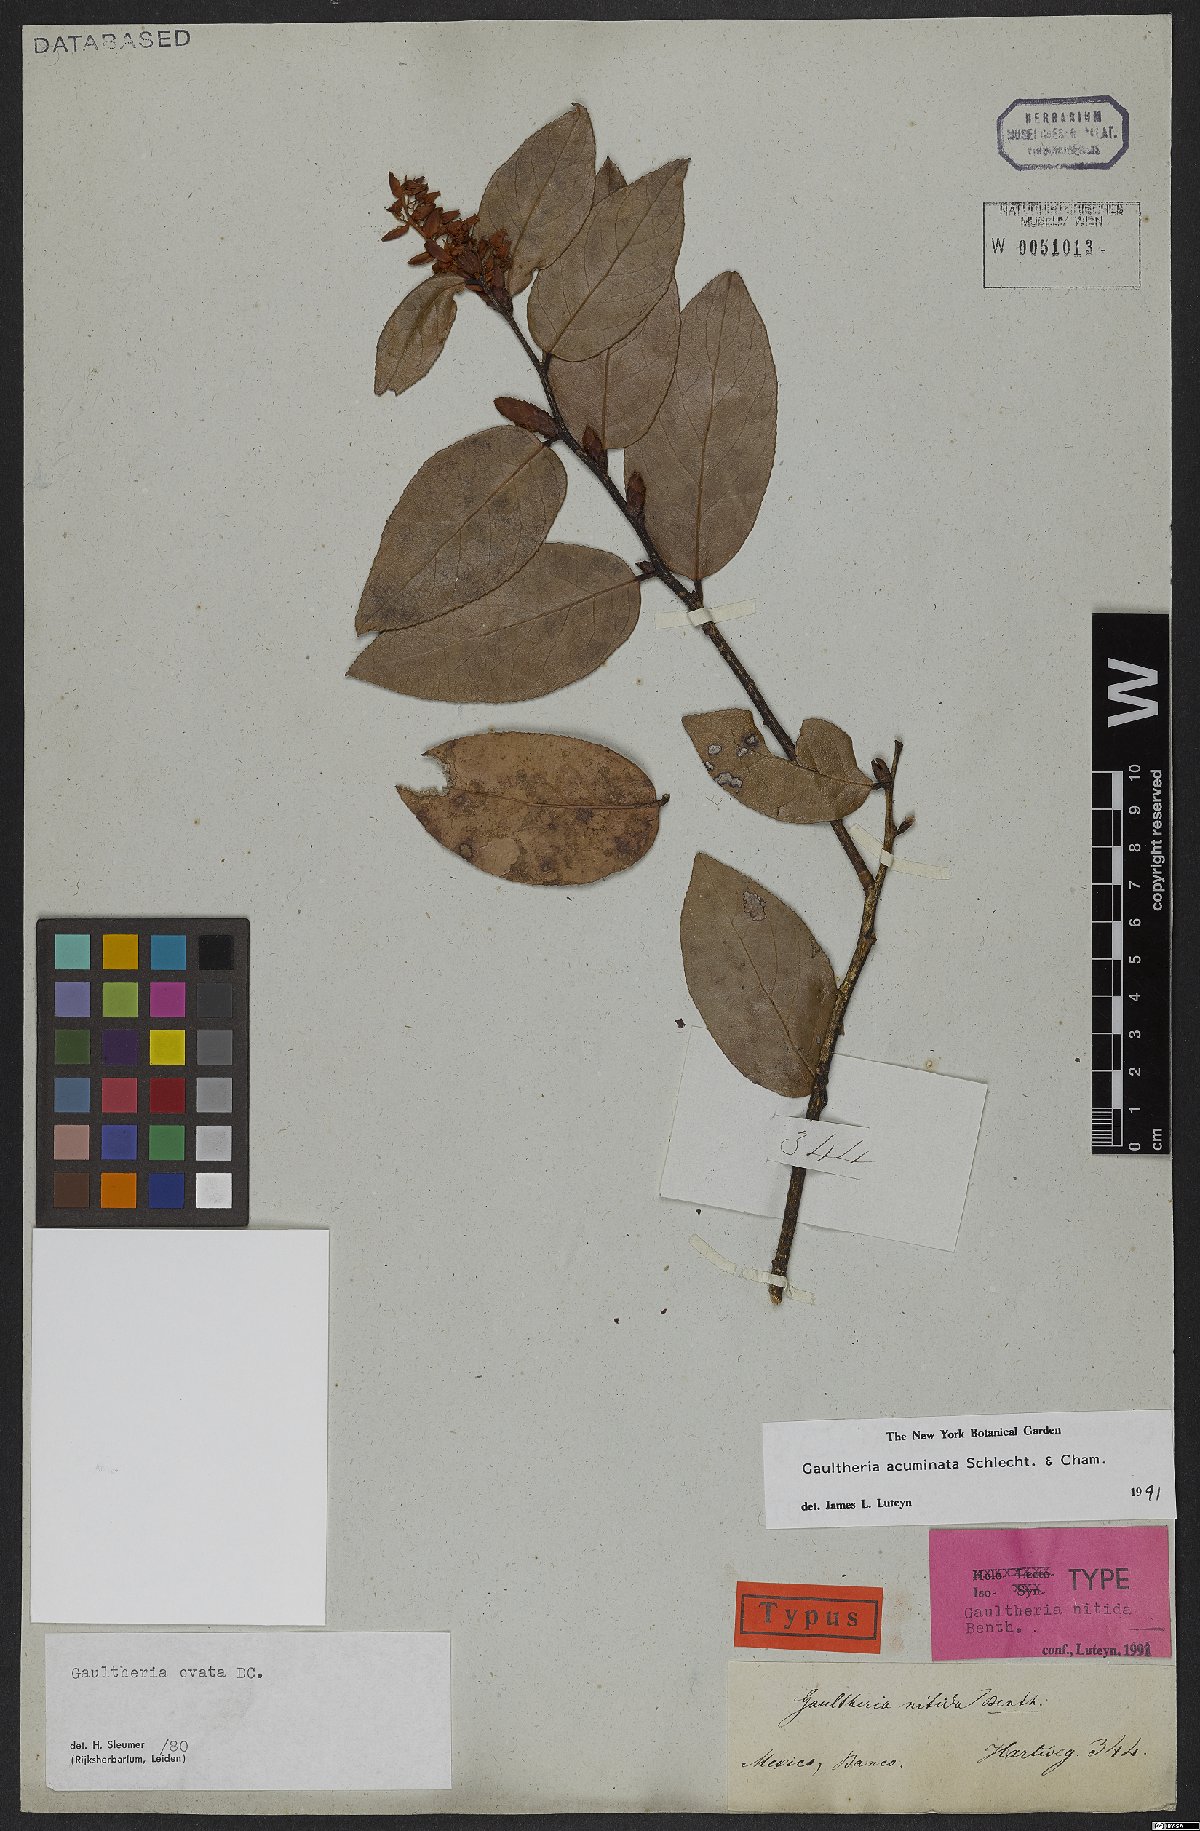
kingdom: Plantae
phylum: Tracheophyta
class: Magnoliopsida
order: Ericales
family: Ericaceae
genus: Gaultheria
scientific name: Gaultheria acuminata
